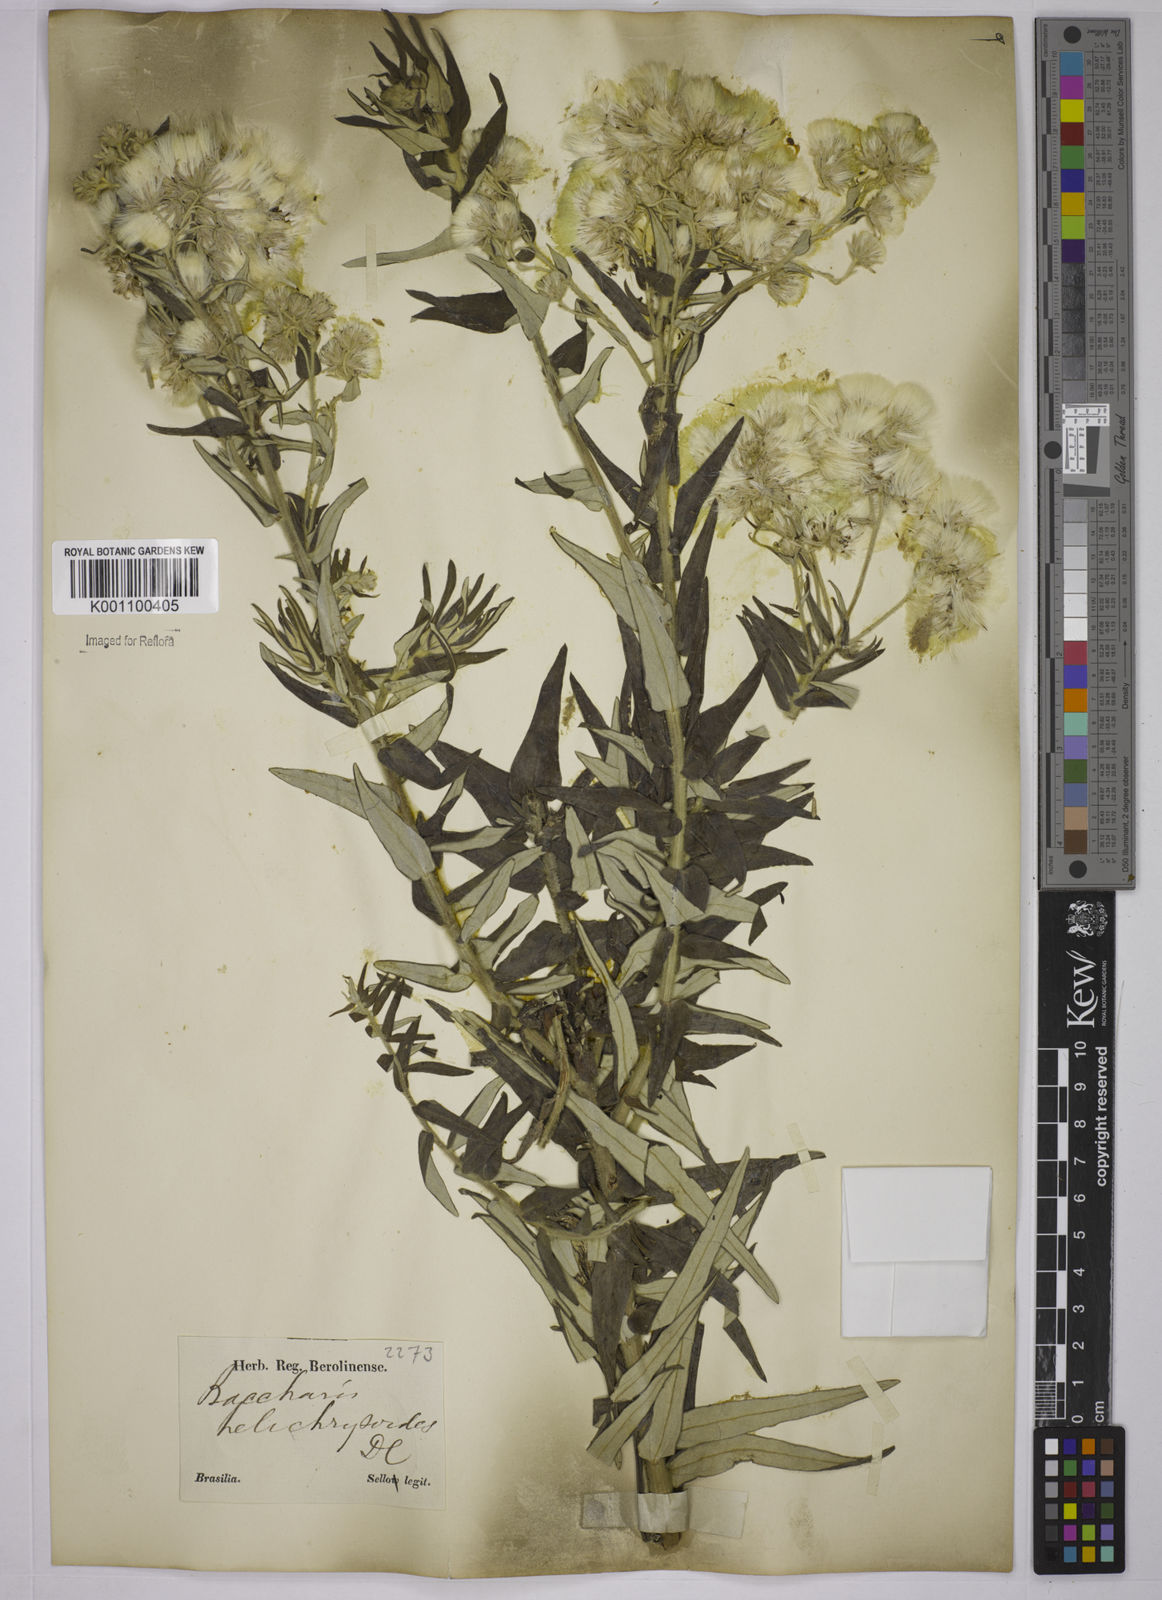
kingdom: Plantae
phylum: Tracheophyta
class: Magnoliopsida
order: Asterales
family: Asteraceae
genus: Baccharis
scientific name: Baccharis helichrysoides
